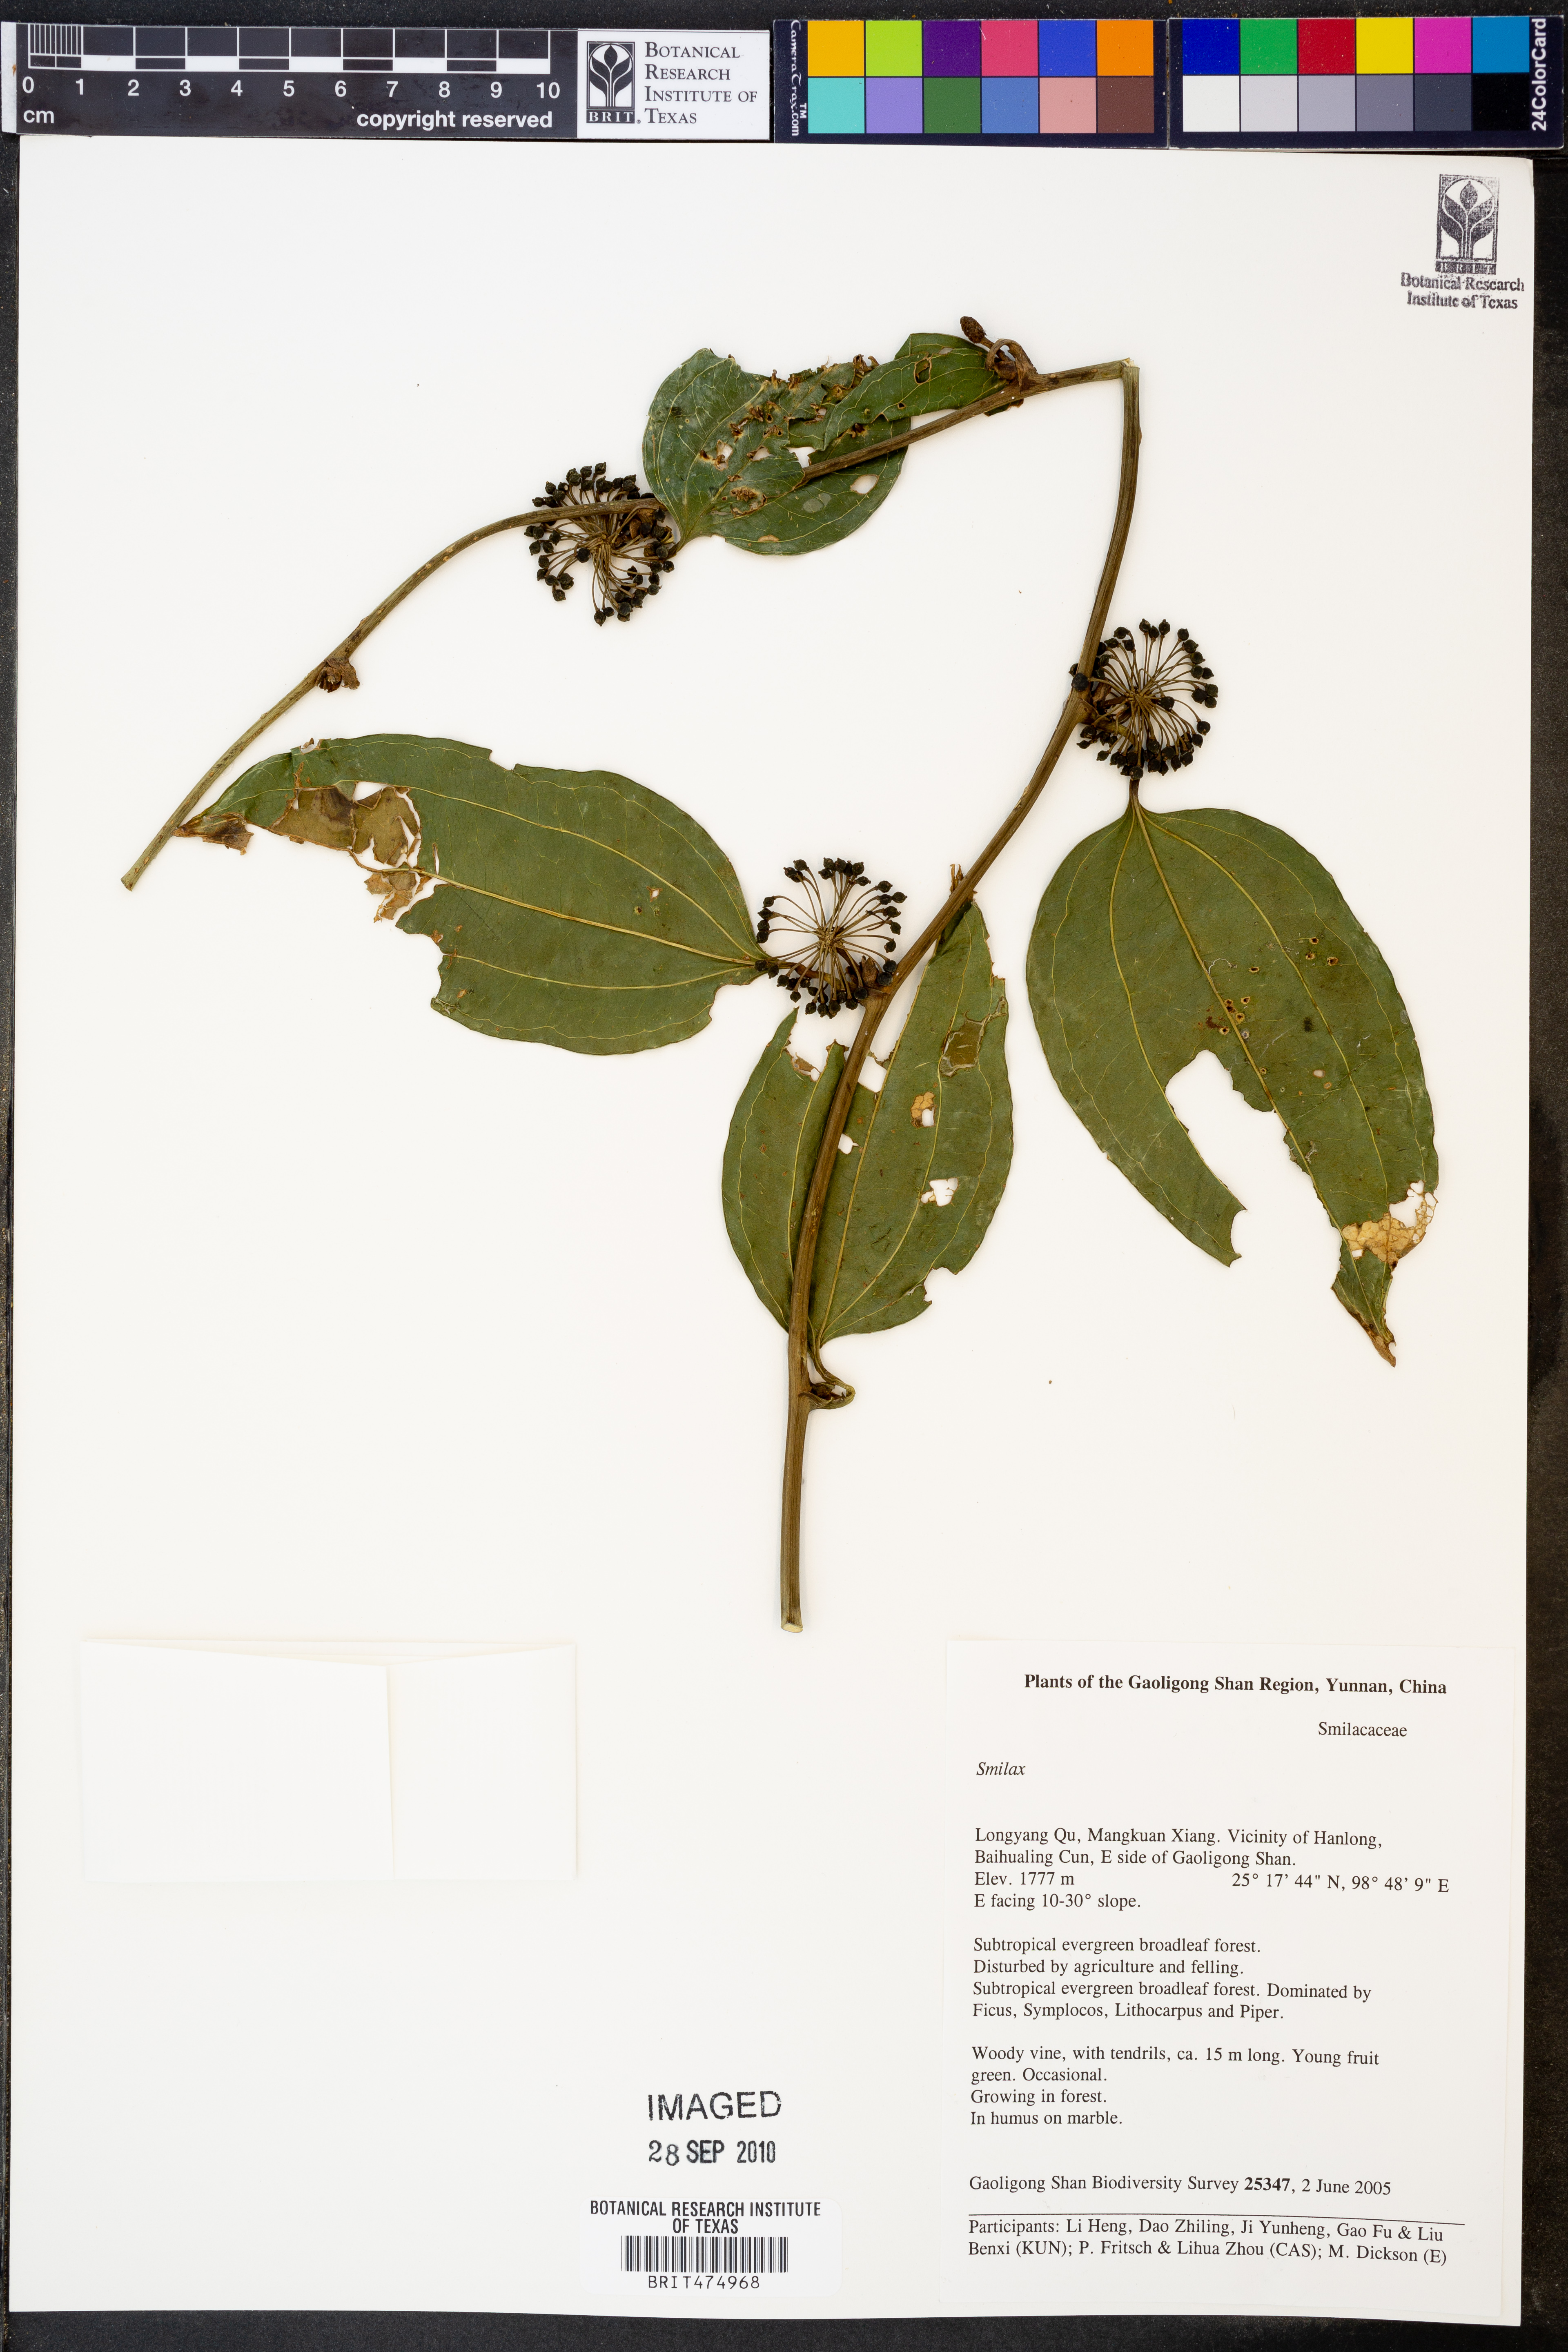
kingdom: Plantae
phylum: Tracheophyta
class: Liliopsida
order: Liliales
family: Smilacaceae
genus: Smilax
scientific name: Smilax
